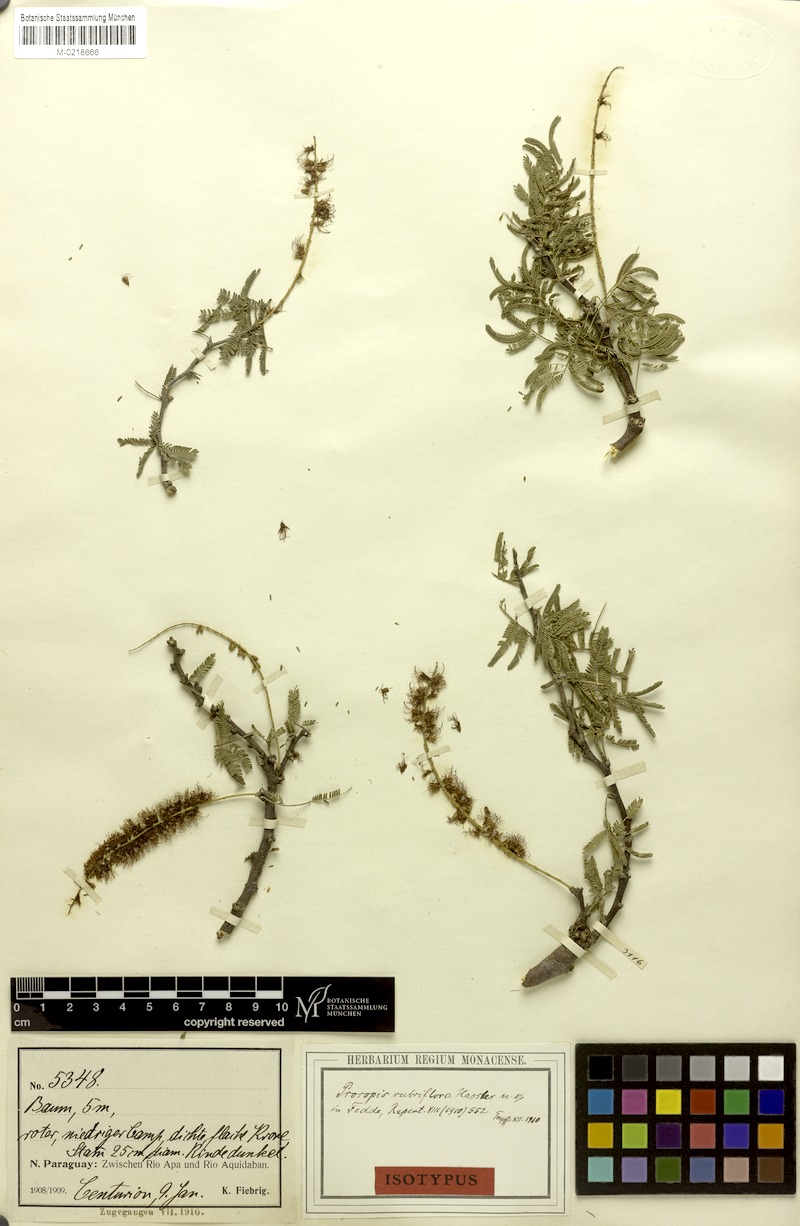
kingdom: Plantae
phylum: Tracheophyta
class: Magnoliopsida
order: Fabales
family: Fabaceae
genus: Prosopis
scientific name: Prosopis rubriflora
